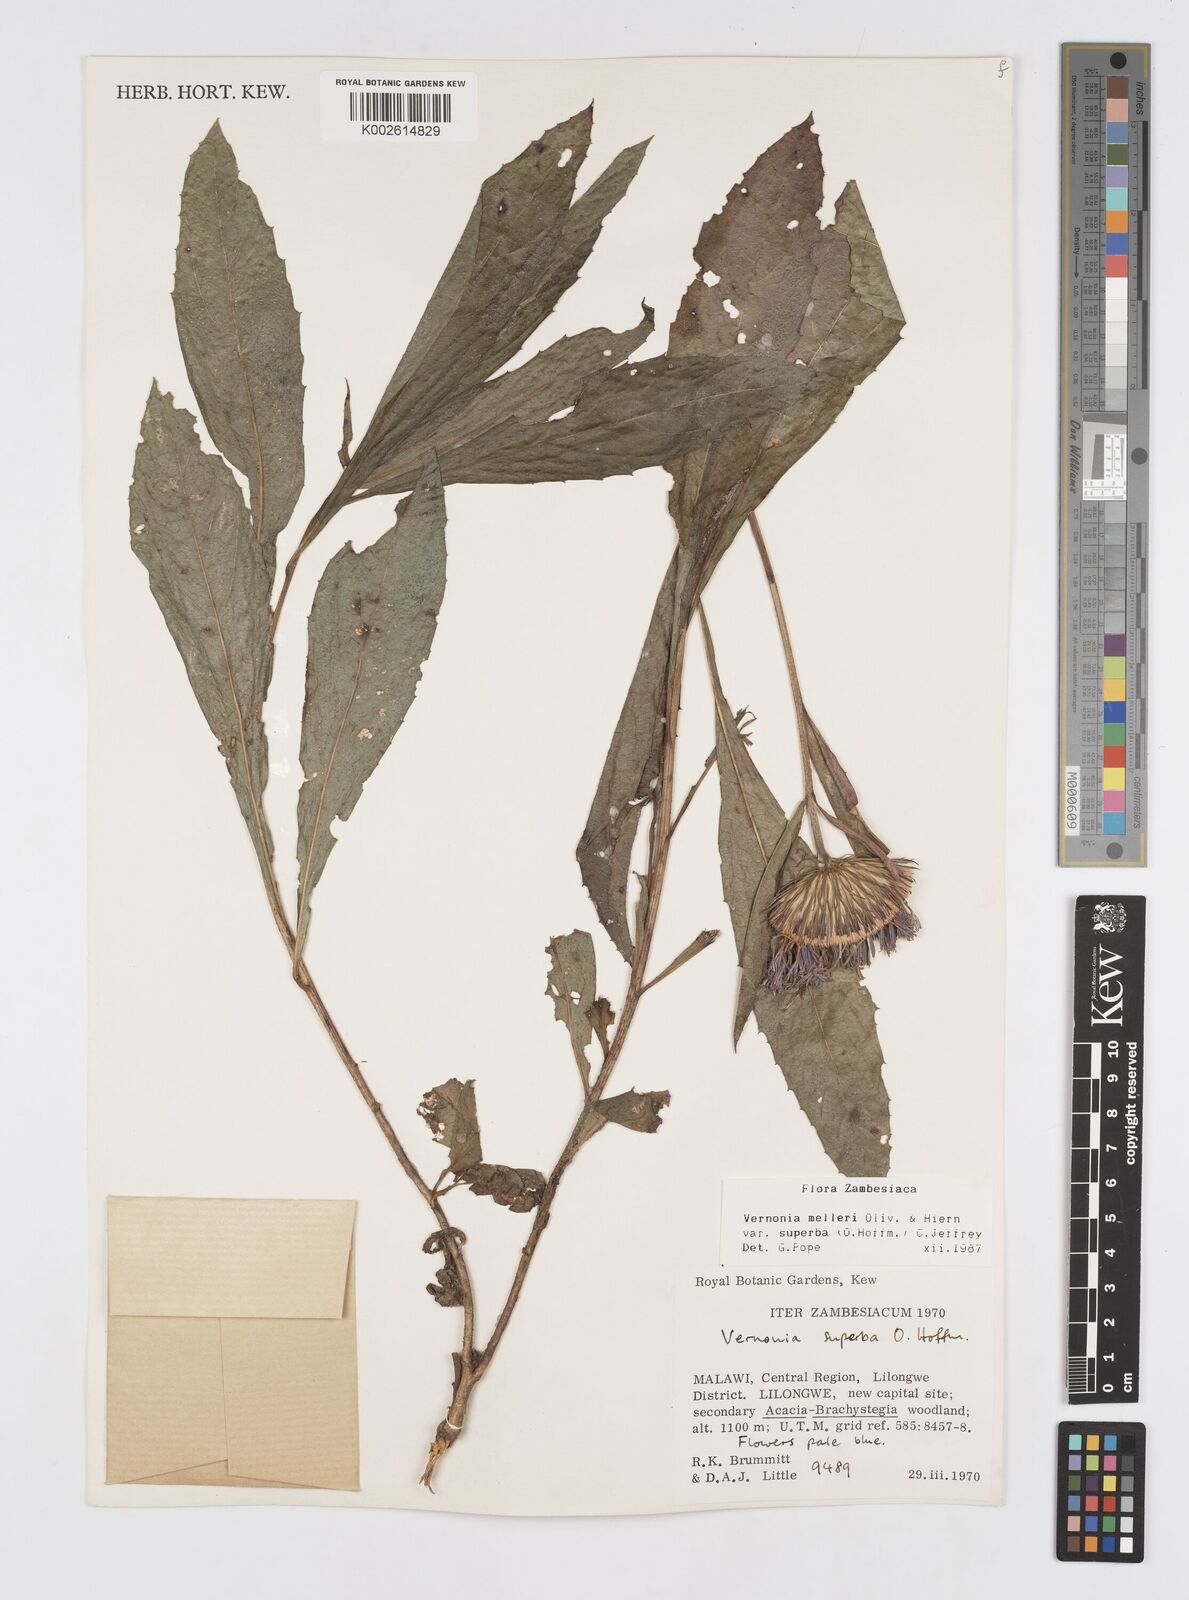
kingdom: Plantae
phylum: Tracheophyta
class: Magnoliopsida
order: Asterales
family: Asteraceae
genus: Linzia
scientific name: Linzia melleri
